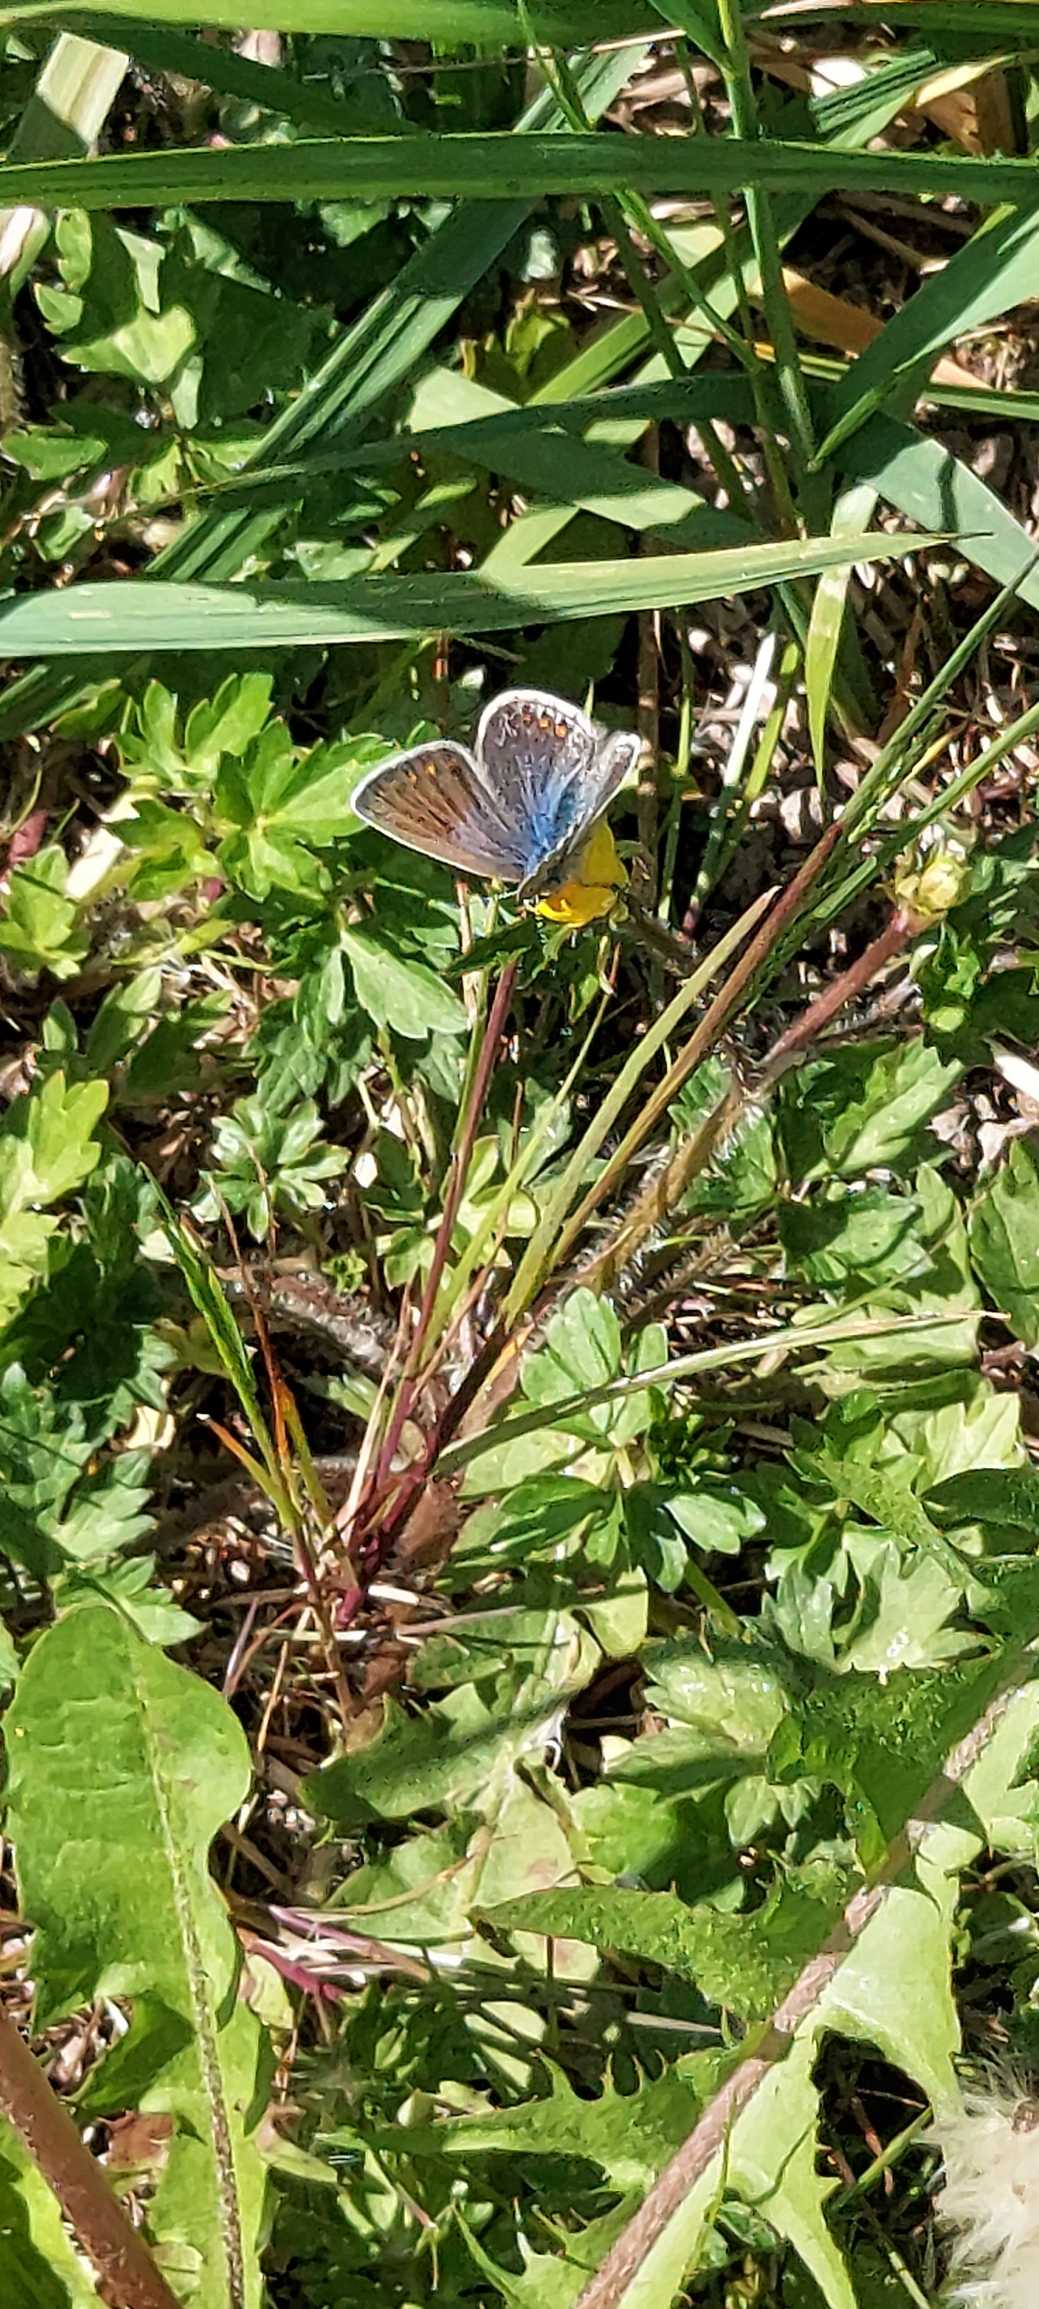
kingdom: Animalia
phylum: Arthropoda
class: Insecta
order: Lepidoptera
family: Lycaenidae
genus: Polyommatus
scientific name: Polyommatus icarus
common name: Almindelig blåfugl
